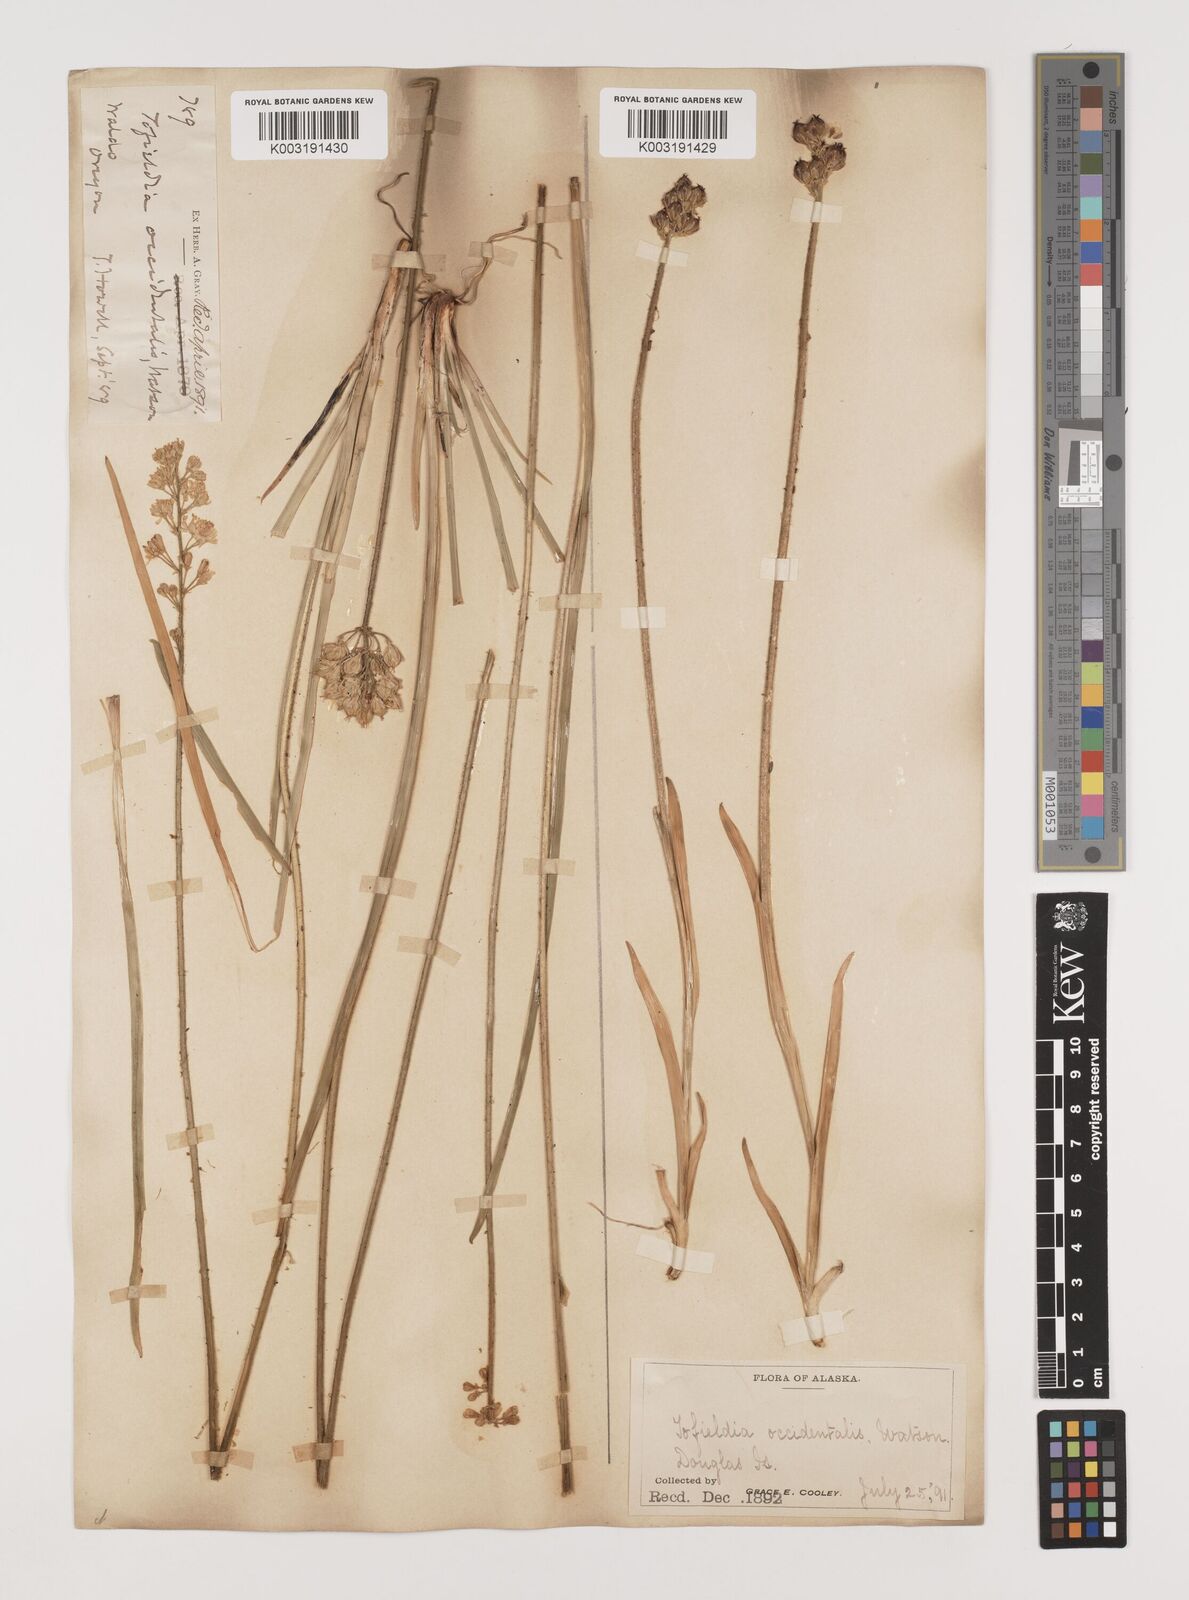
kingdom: Plantae
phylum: Tracheophyta
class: Liliopsida
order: Alismatales
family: Tofieldiaceae
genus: Triantha
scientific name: Triantha occidentalis
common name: Western false asphodel
